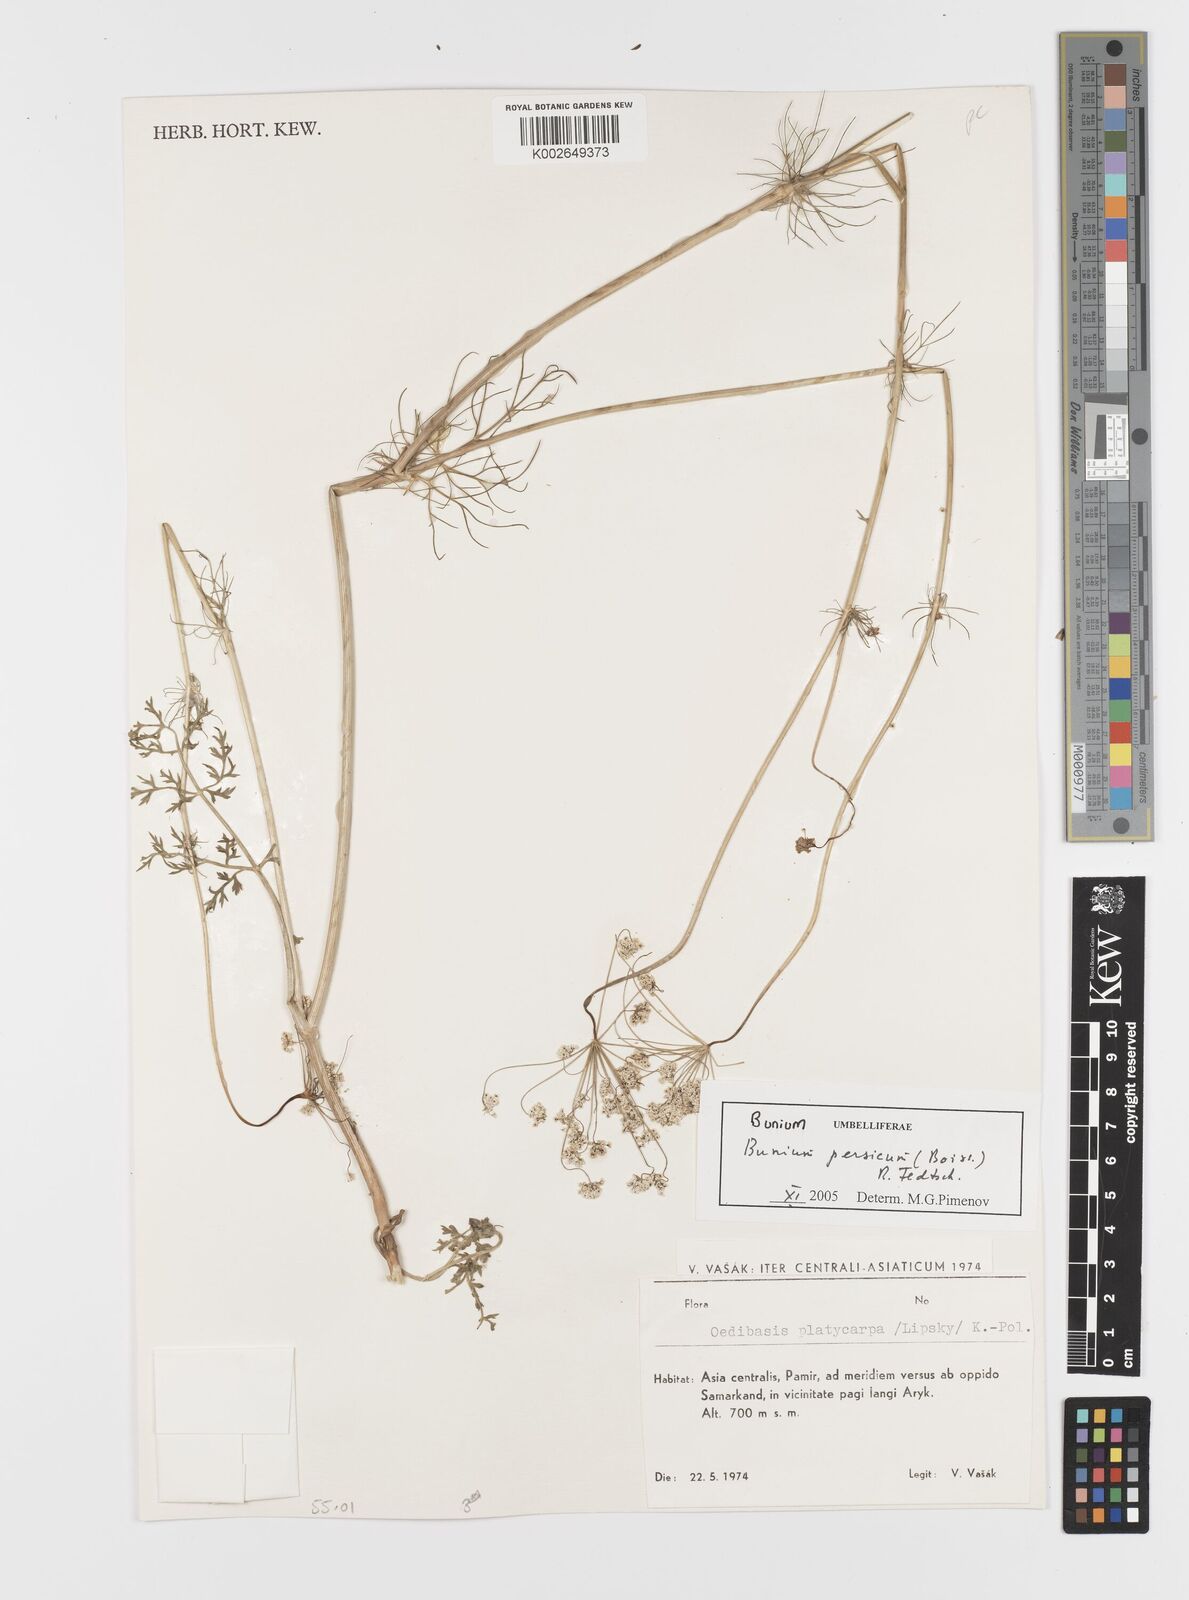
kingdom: Plantae
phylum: Tracheophyta
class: Magnoliopsida
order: Apiales
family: Apiaceae
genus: Elwendia
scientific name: Elwendia persica
